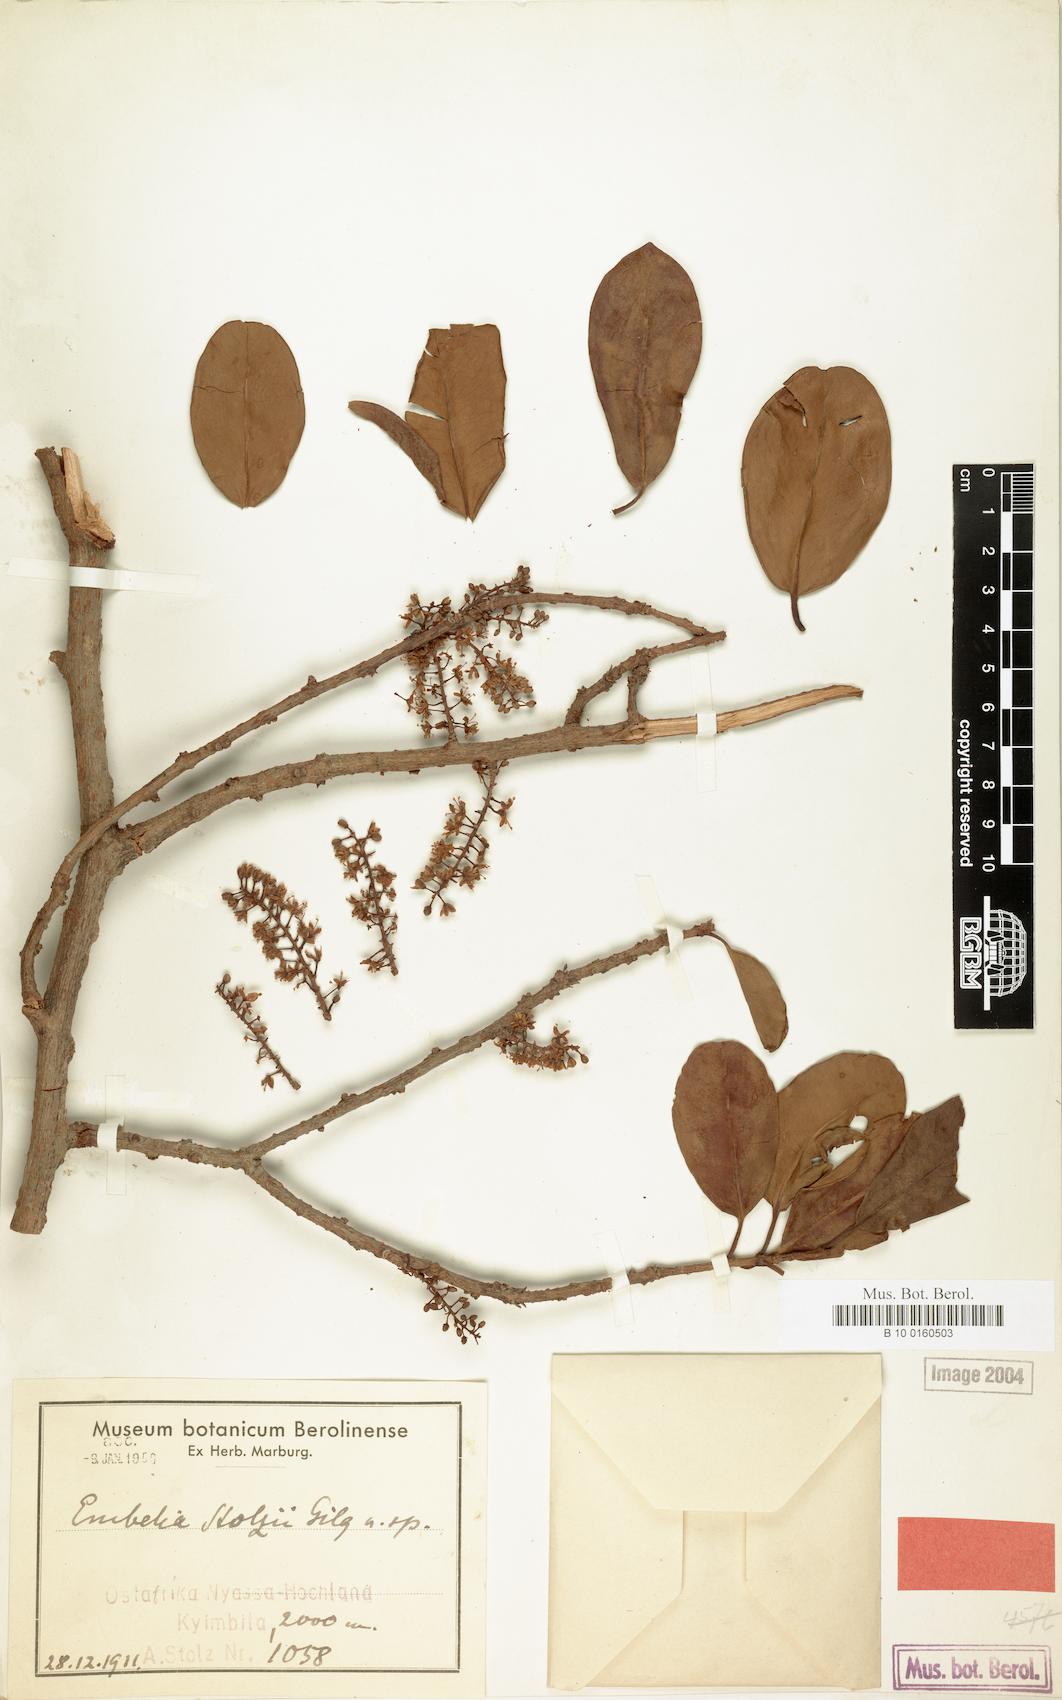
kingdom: Plantae
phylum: Tracheophyta
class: Magnoliopsida
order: Ericales
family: Primulaceae
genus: Embelia
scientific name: Embelia stolzii
